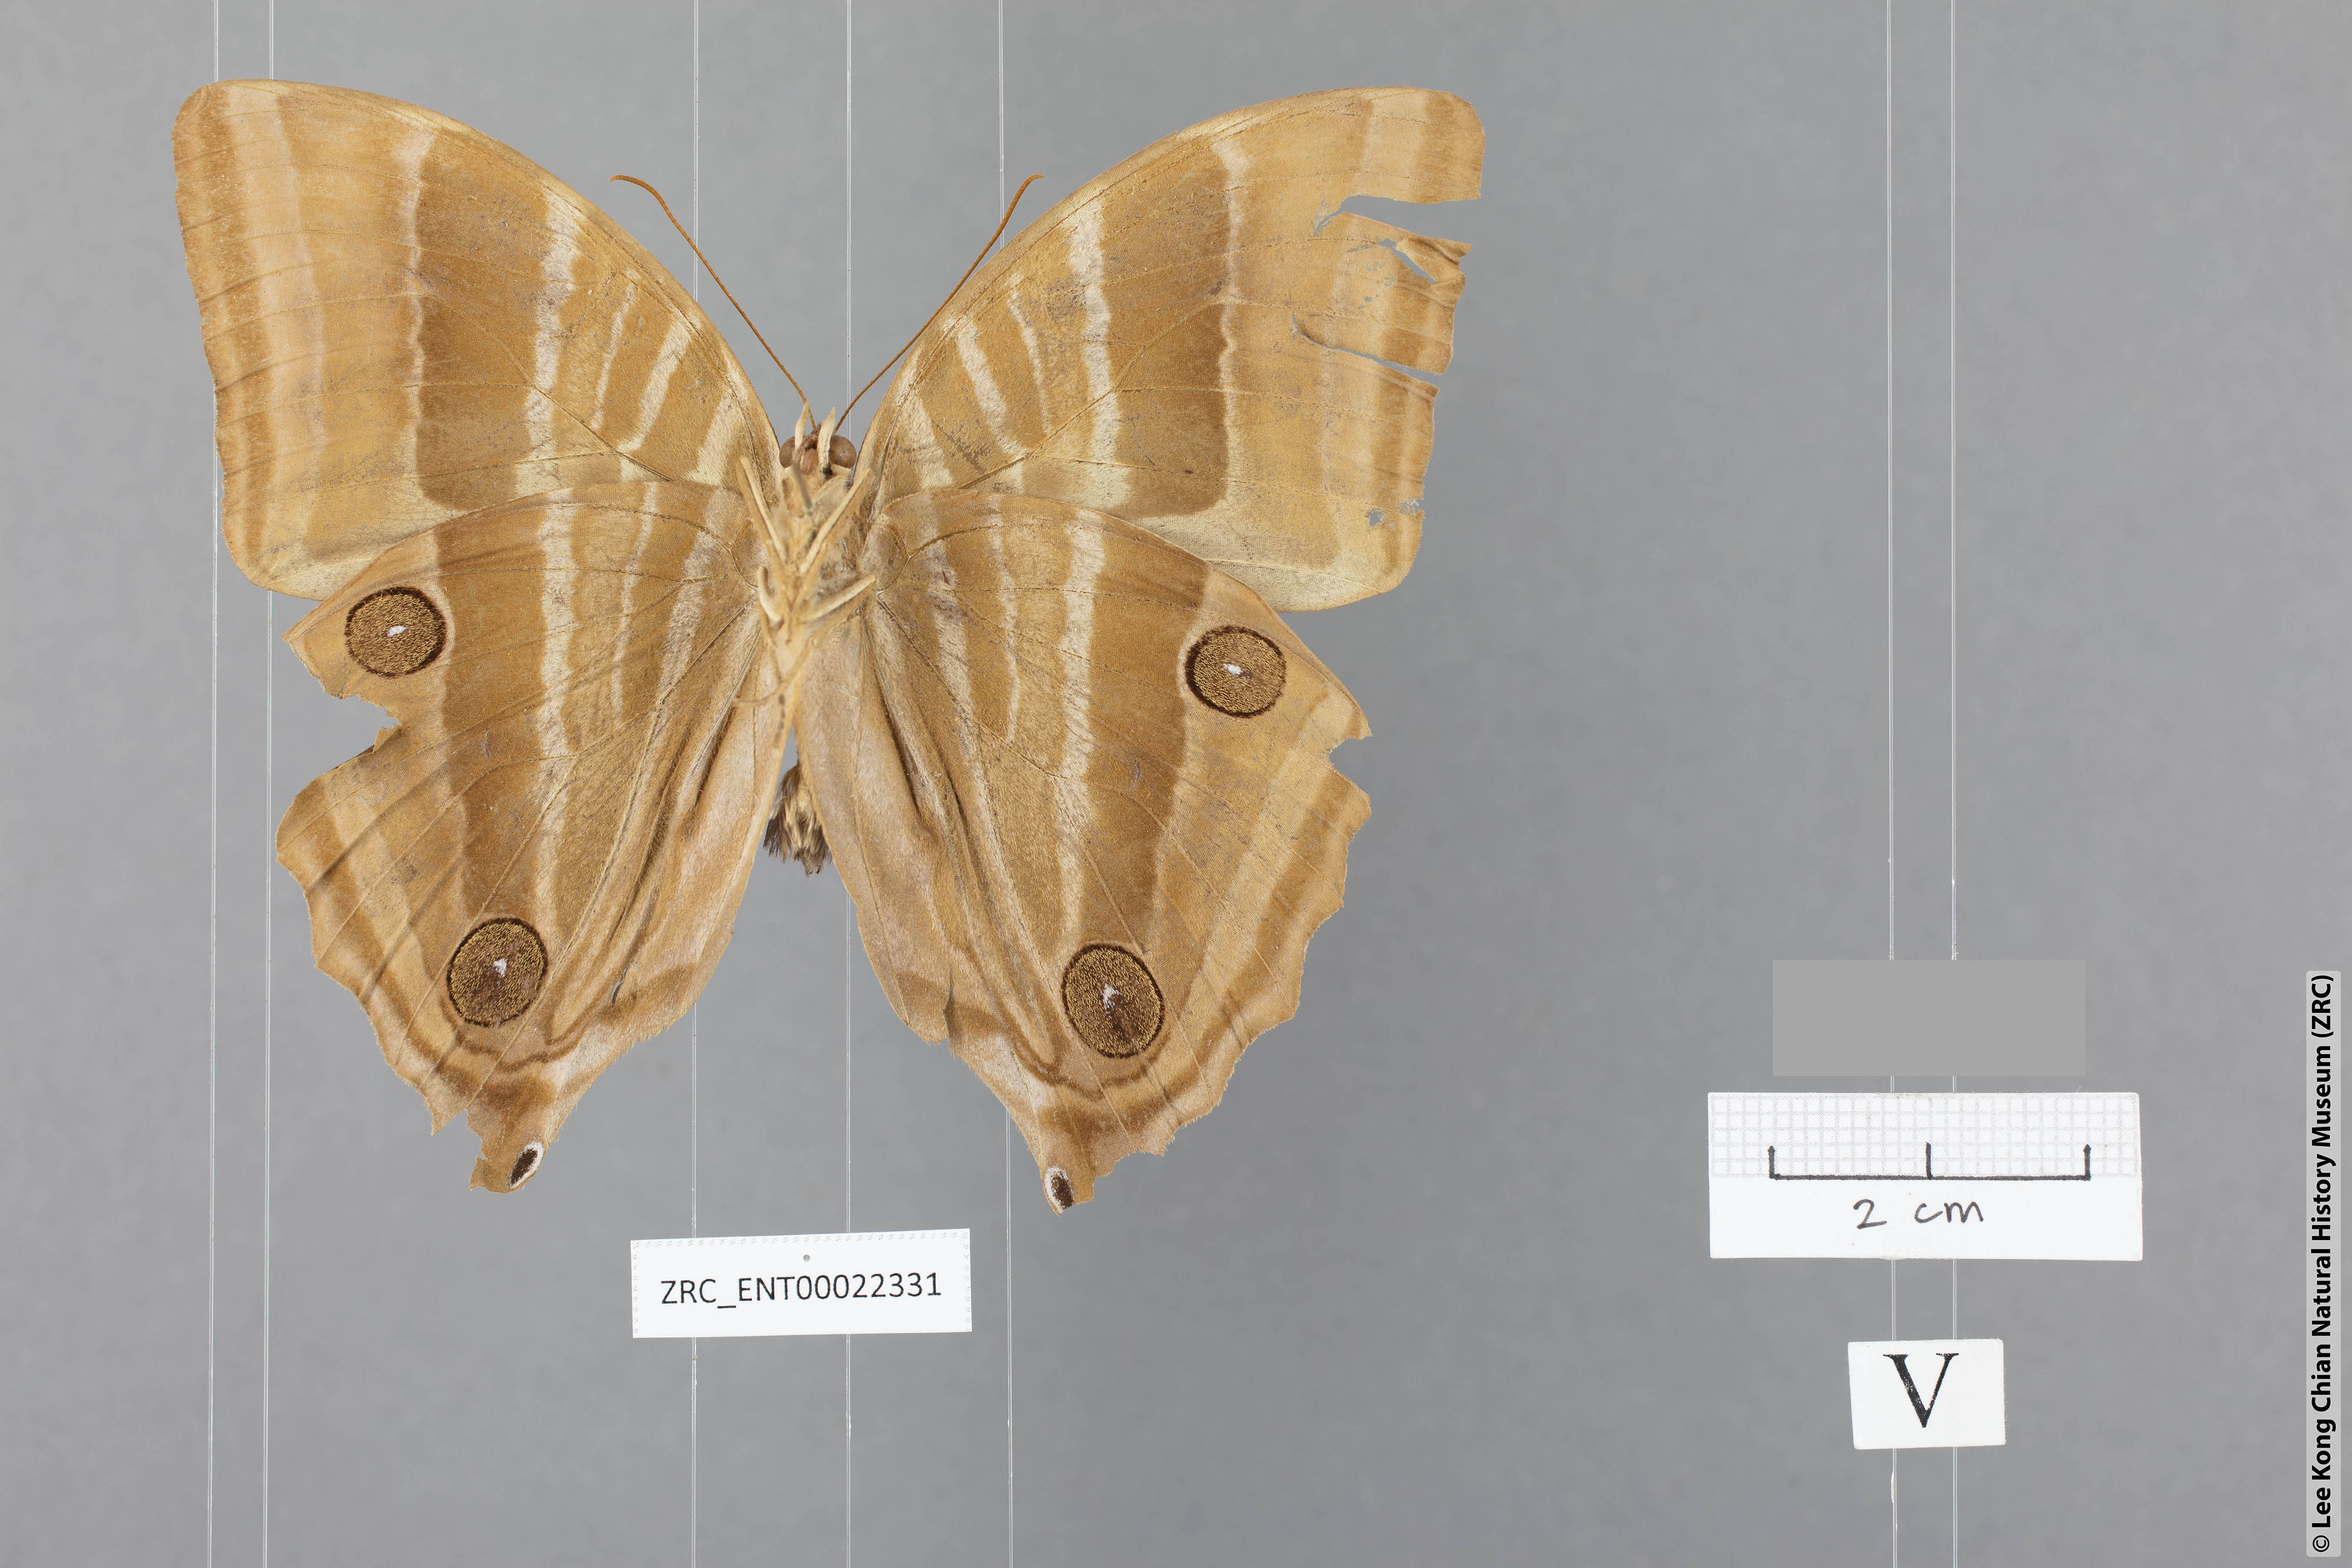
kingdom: Animalia
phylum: Arthropoda
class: Insecta
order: Lepidoptera
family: Nymphalidae
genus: Amathusia
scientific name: Amathusia binghami
